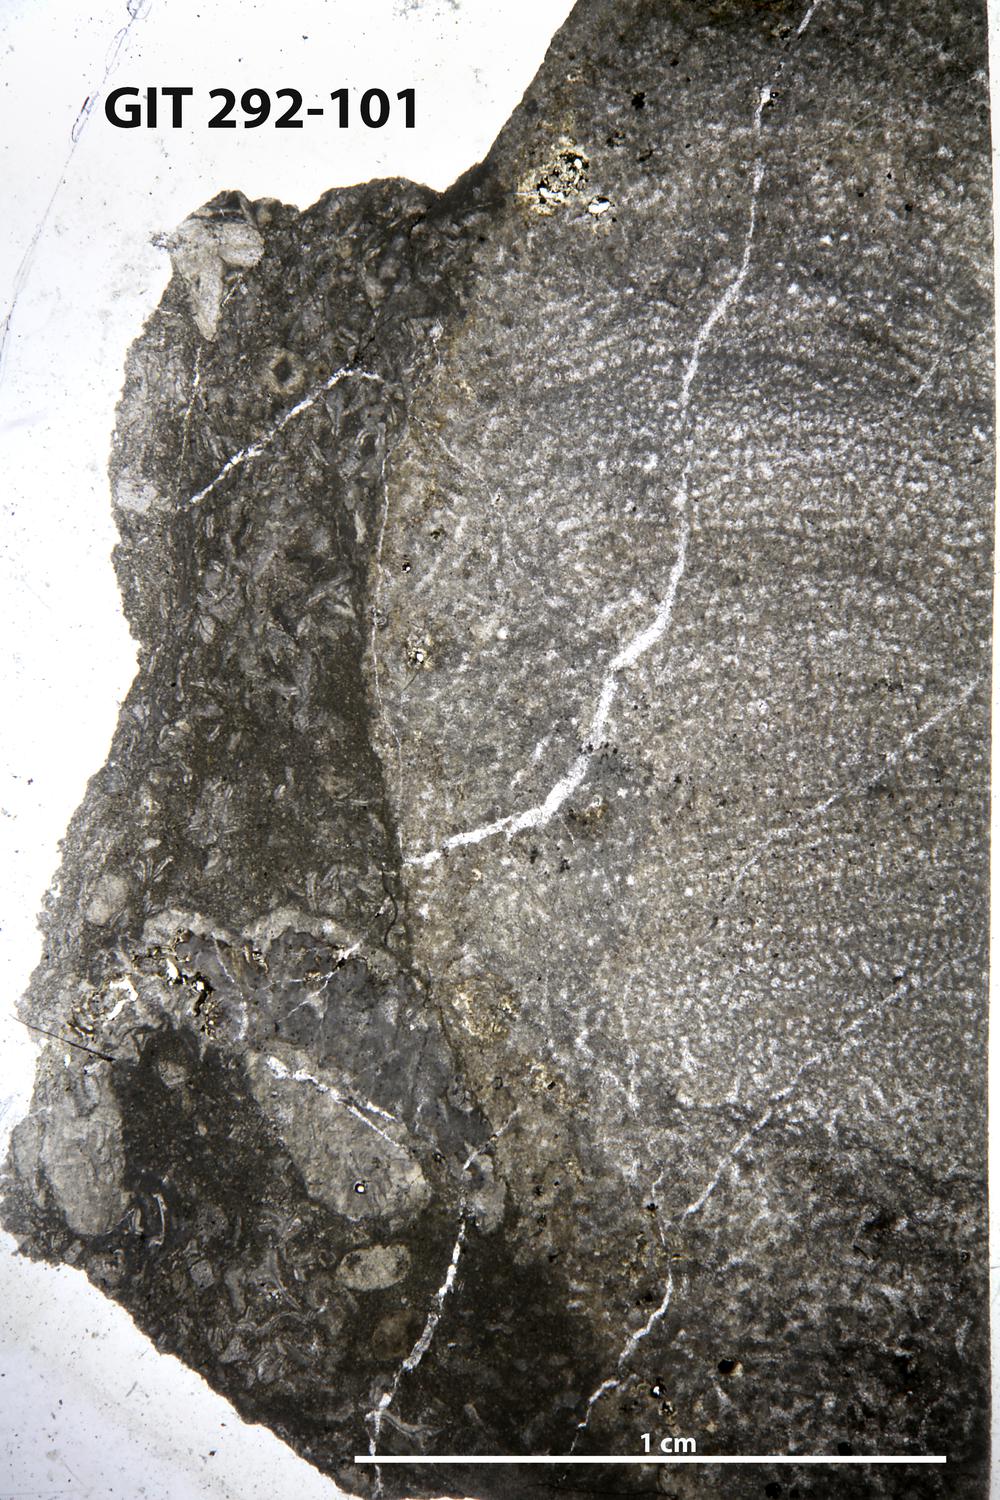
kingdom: Animalia
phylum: Porifera
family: Pseudolabechiidae
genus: Vikingia
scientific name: Vikingia
